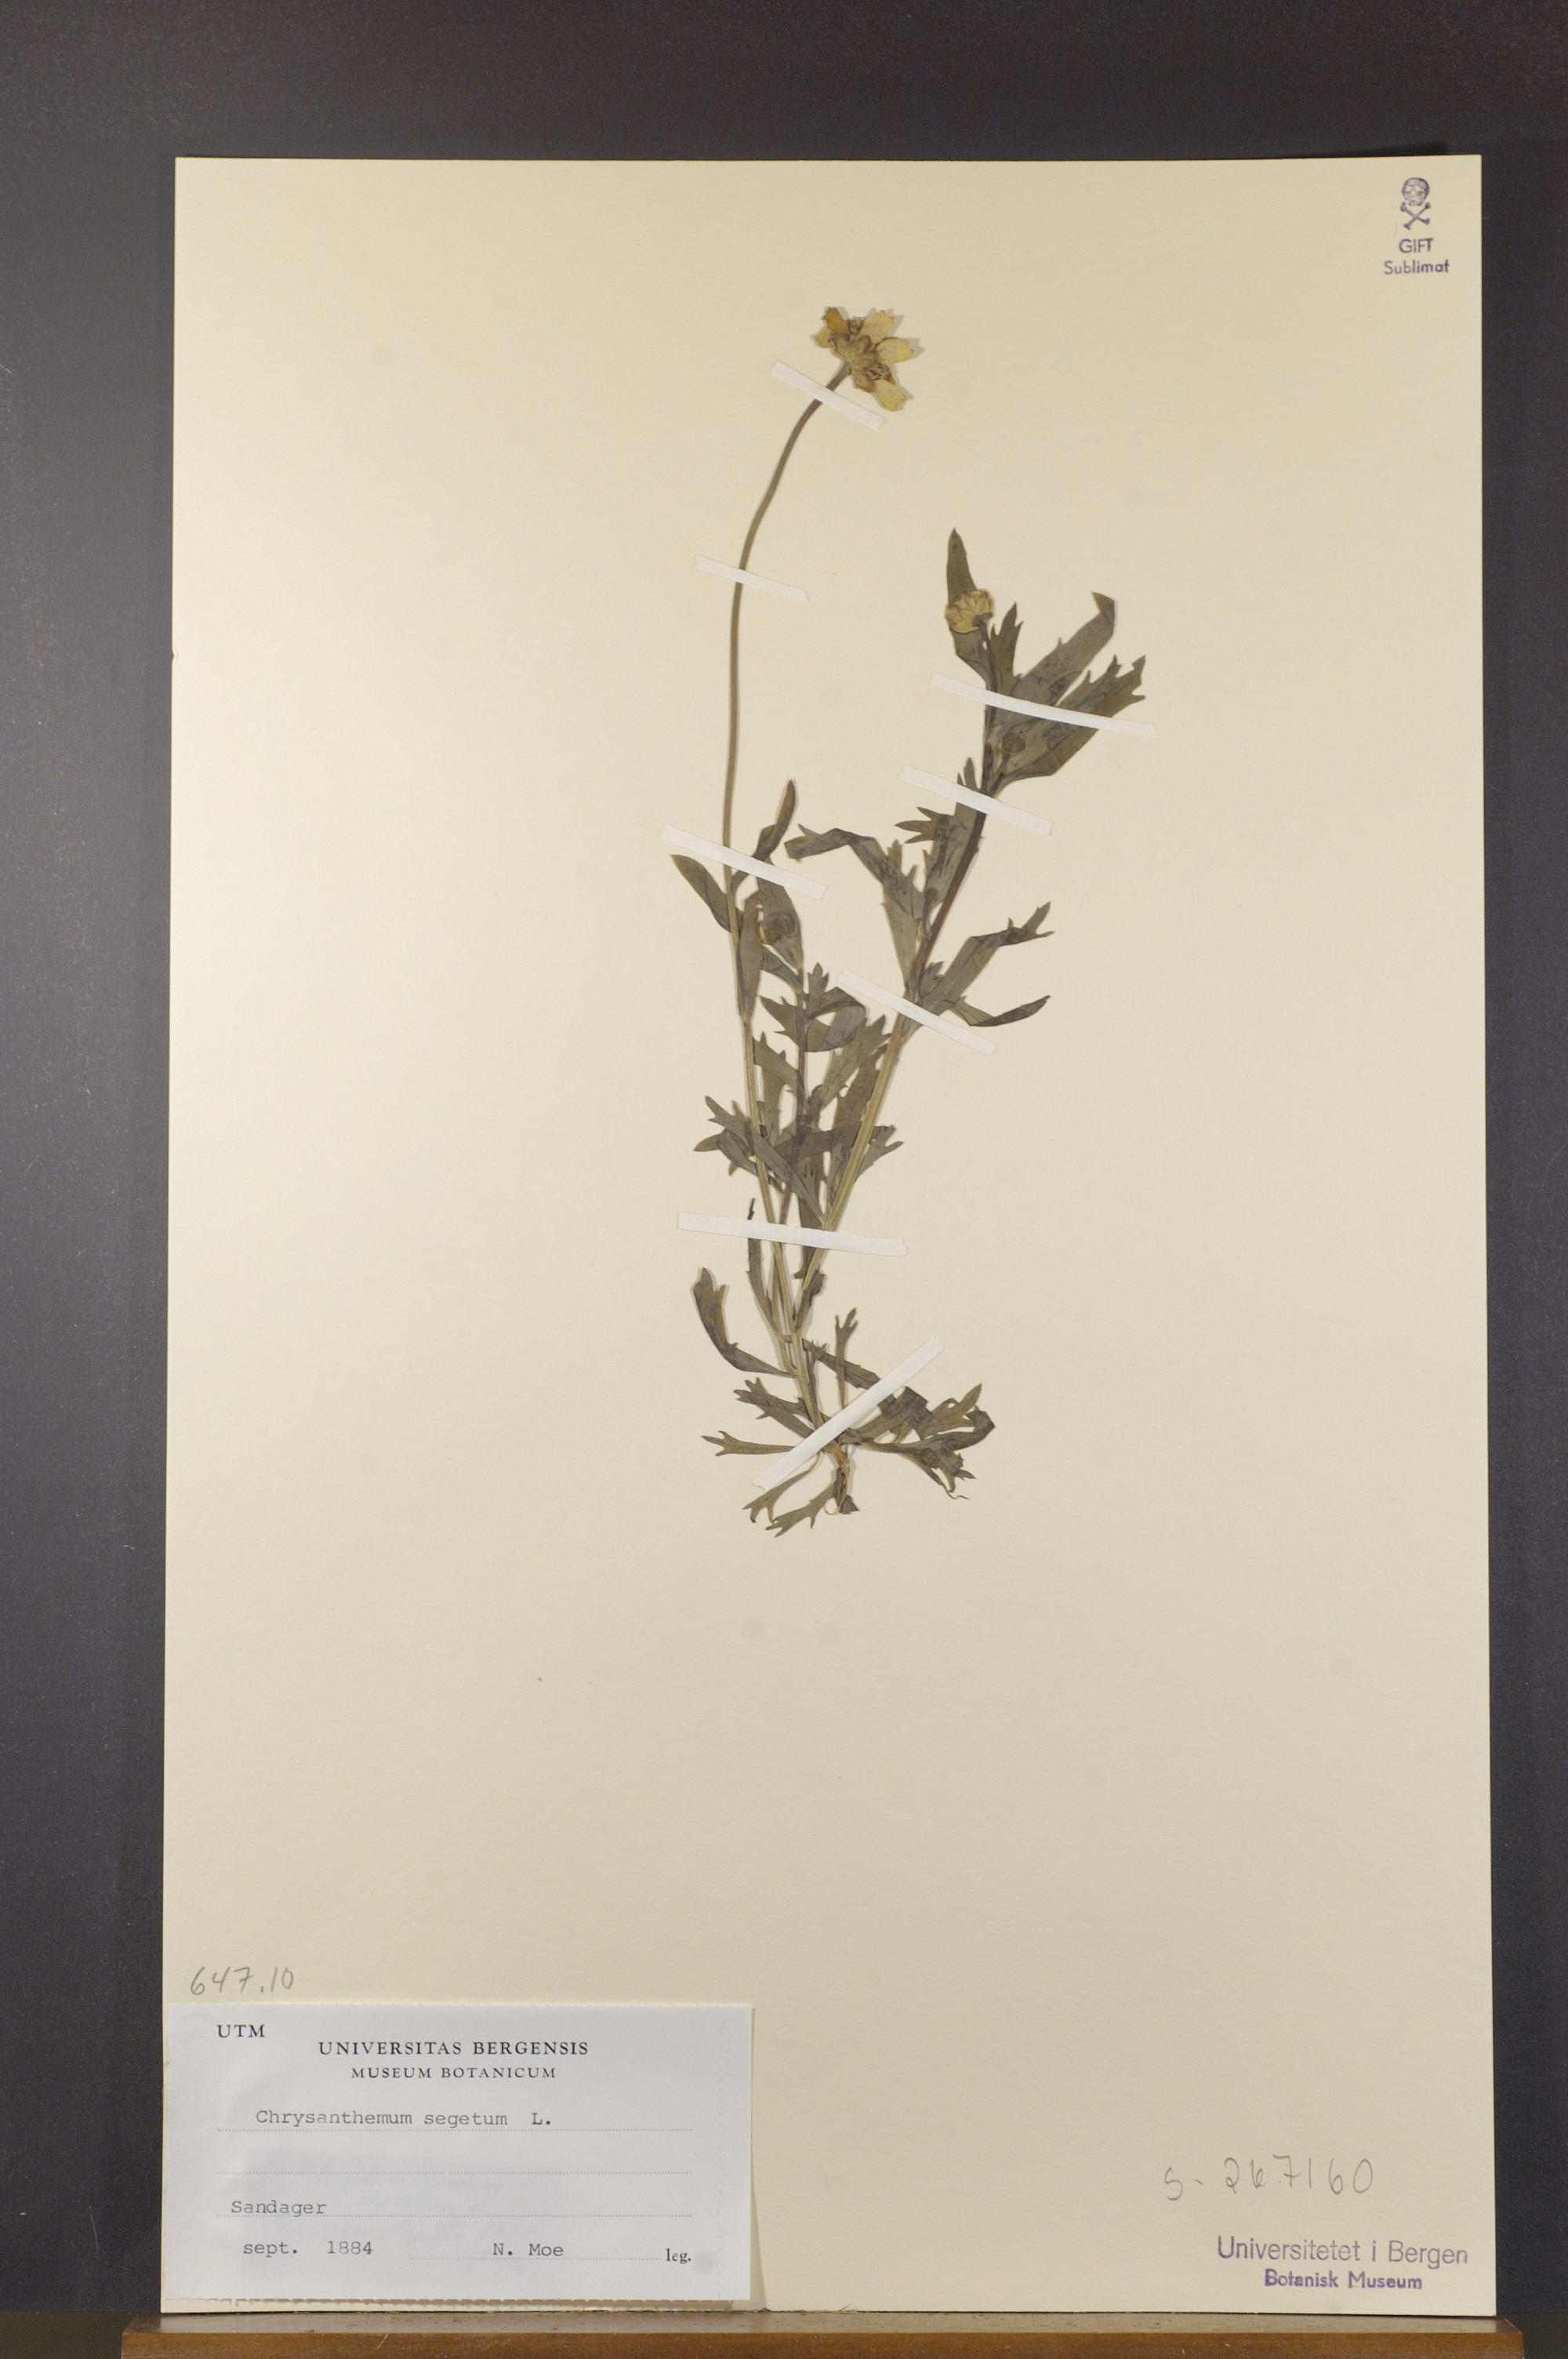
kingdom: Plantae
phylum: Tracheophyta
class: Magnoliopsida
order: Asterales
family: Asteraceae
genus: Glebionis
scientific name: Glebionis segetum
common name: Corndaisy
